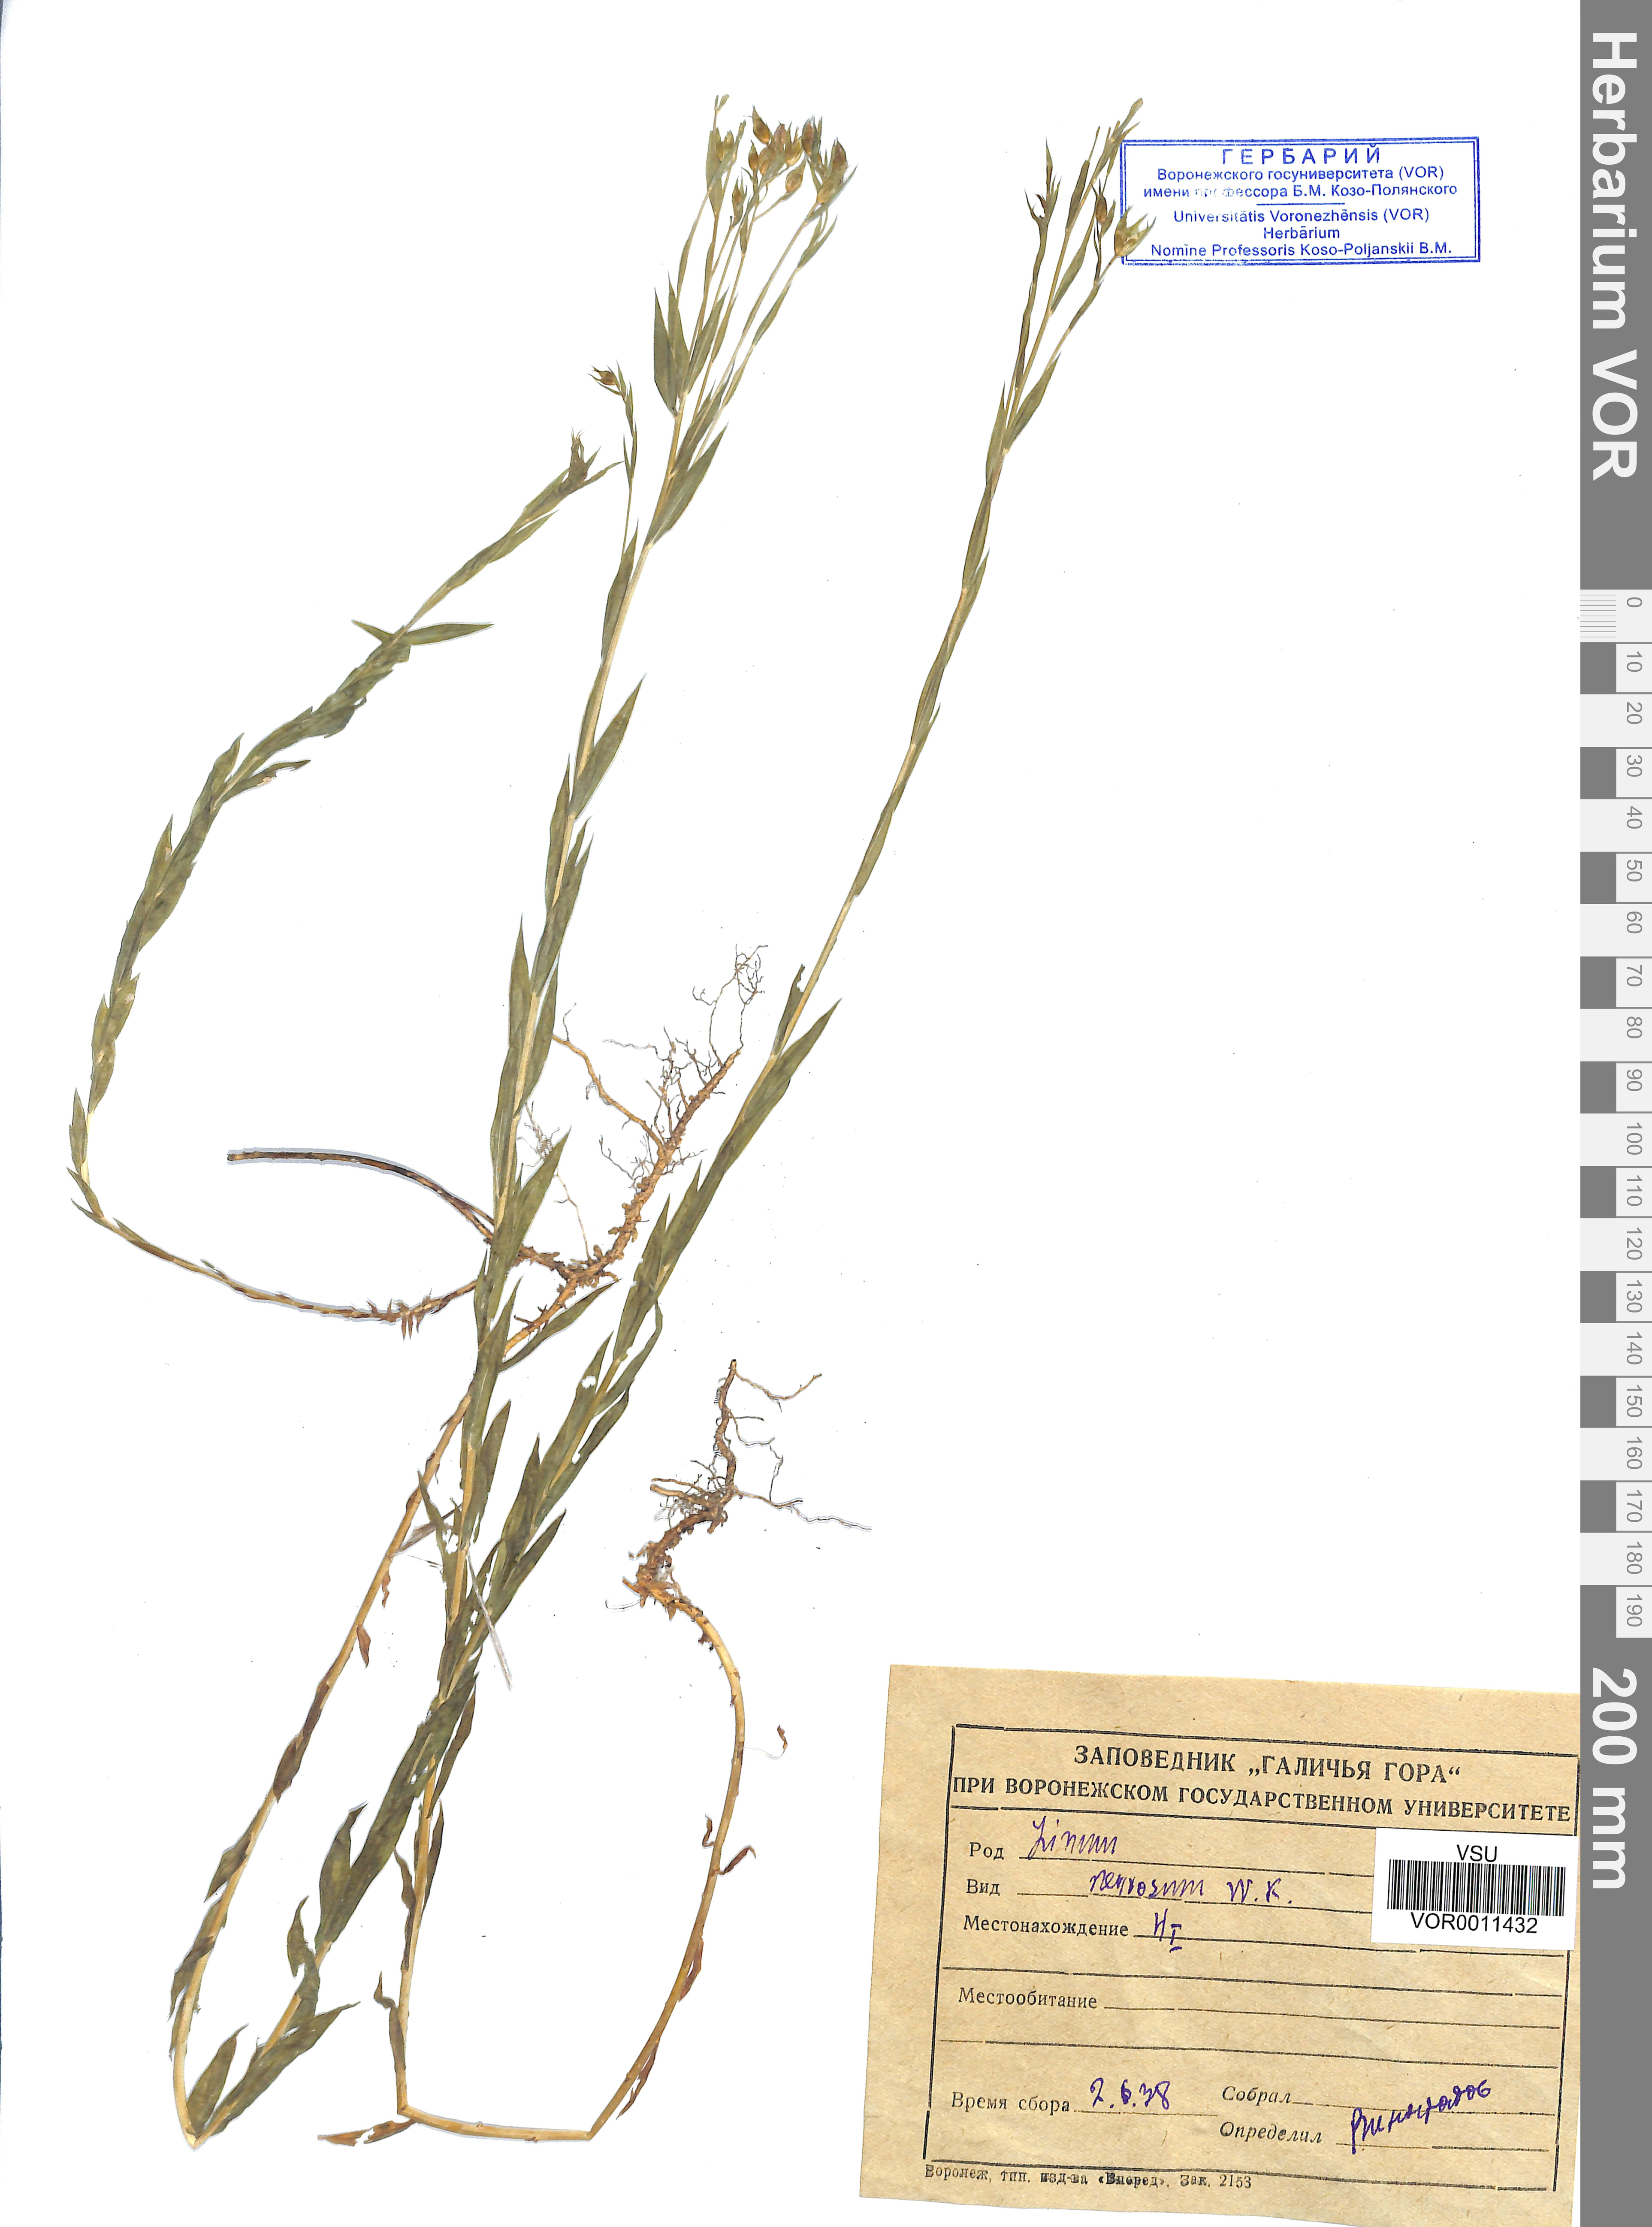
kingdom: Plantae
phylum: Tracheophyta
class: Magnoliopsida
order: Malpighiales
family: Linaceae
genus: Linum
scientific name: Linum nervosum
